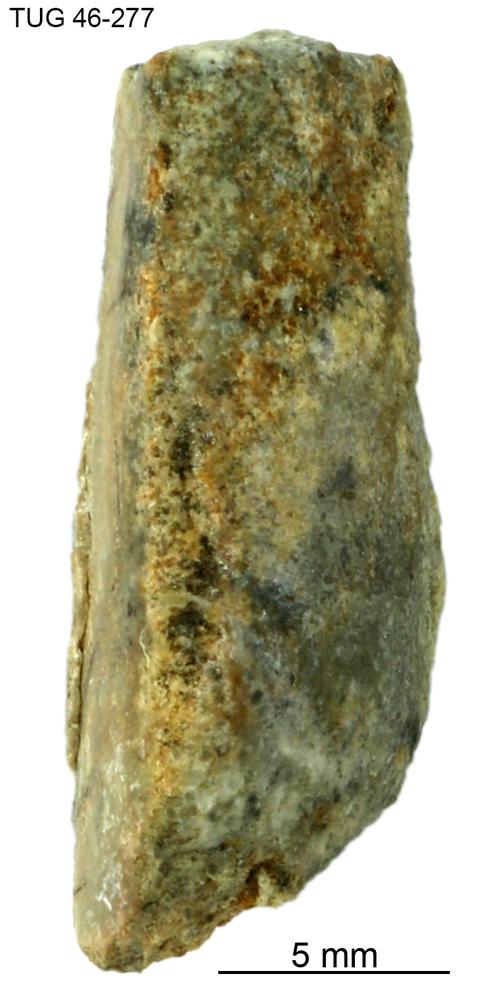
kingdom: Animalia
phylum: Annelida
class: Polychaeta
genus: Hyolithes
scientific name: Hyolithes
